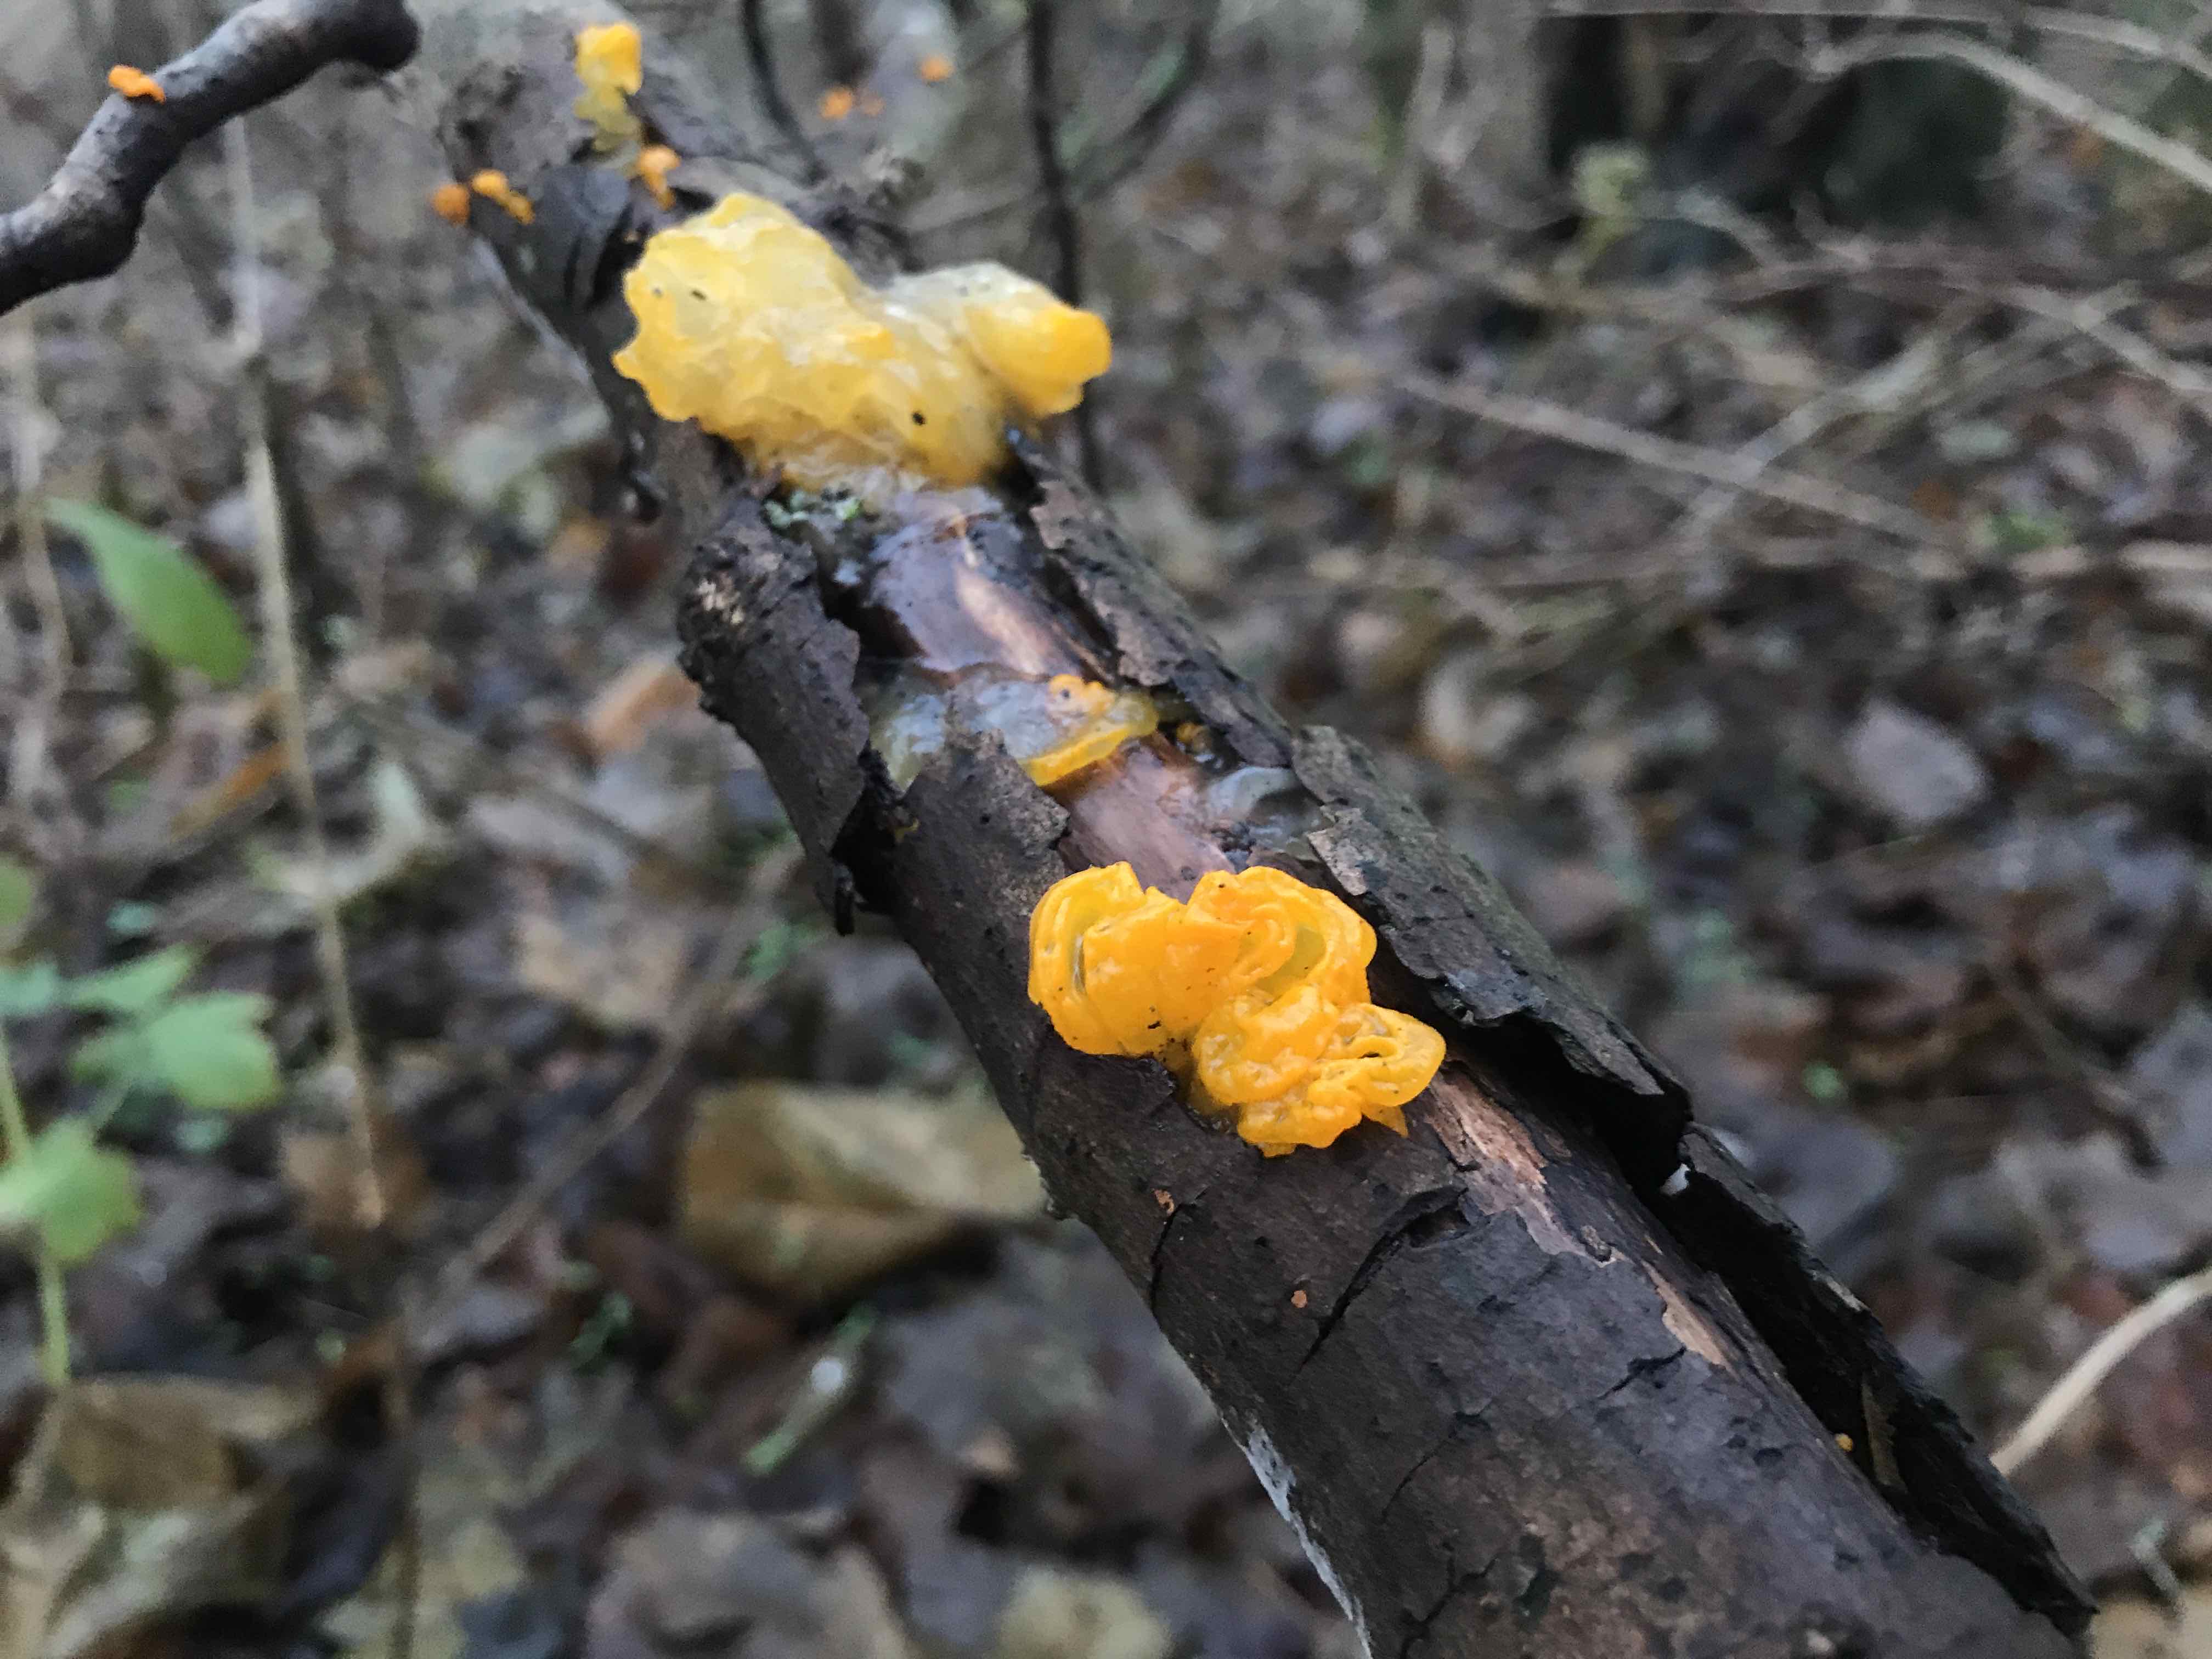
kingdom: Fungi
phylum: Basidiomycota
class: Tremellomycetes
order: Tremellales
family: Tremellaceae
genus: Tremella
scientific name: Tremella mesenterica
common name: gul bævresvamp
